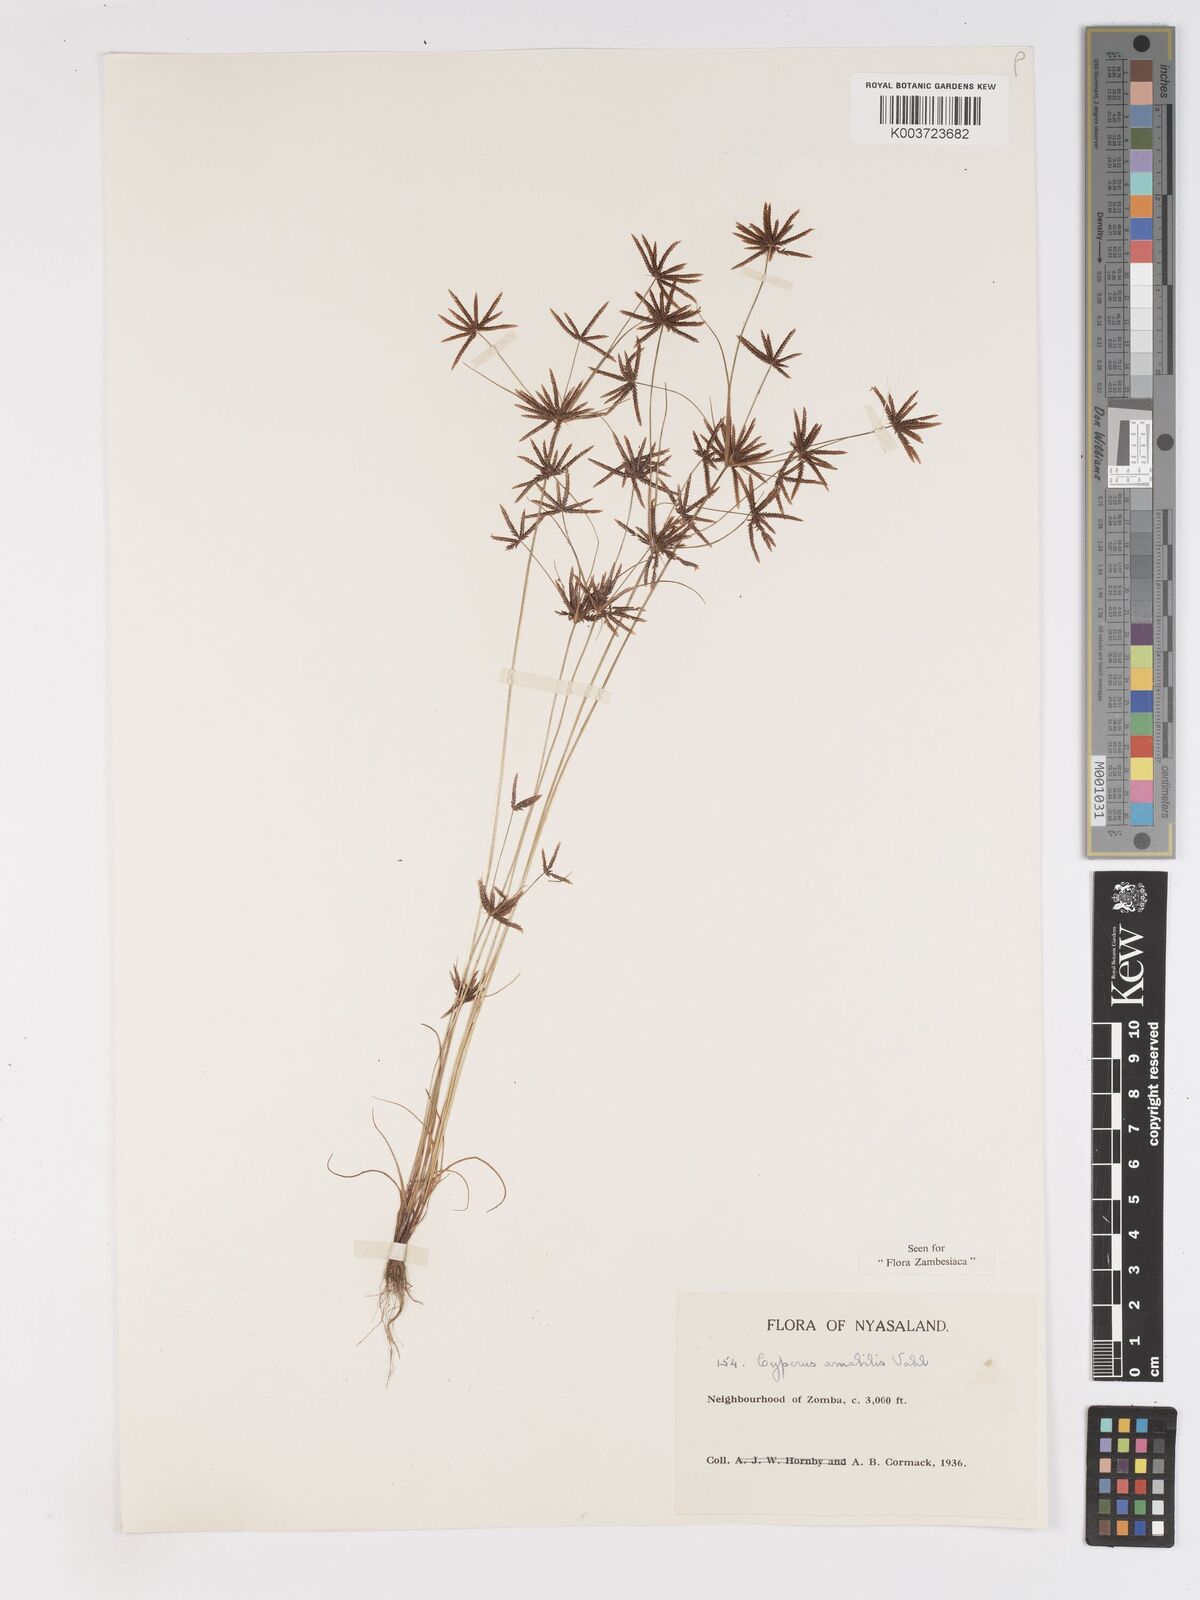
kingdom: Plantae
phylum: Tracheophyta
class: Liliopsida
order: Poales
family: Cyperaceae
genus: Cyperus
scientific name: Cyperus amabilis
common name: Foothill flat sedge
